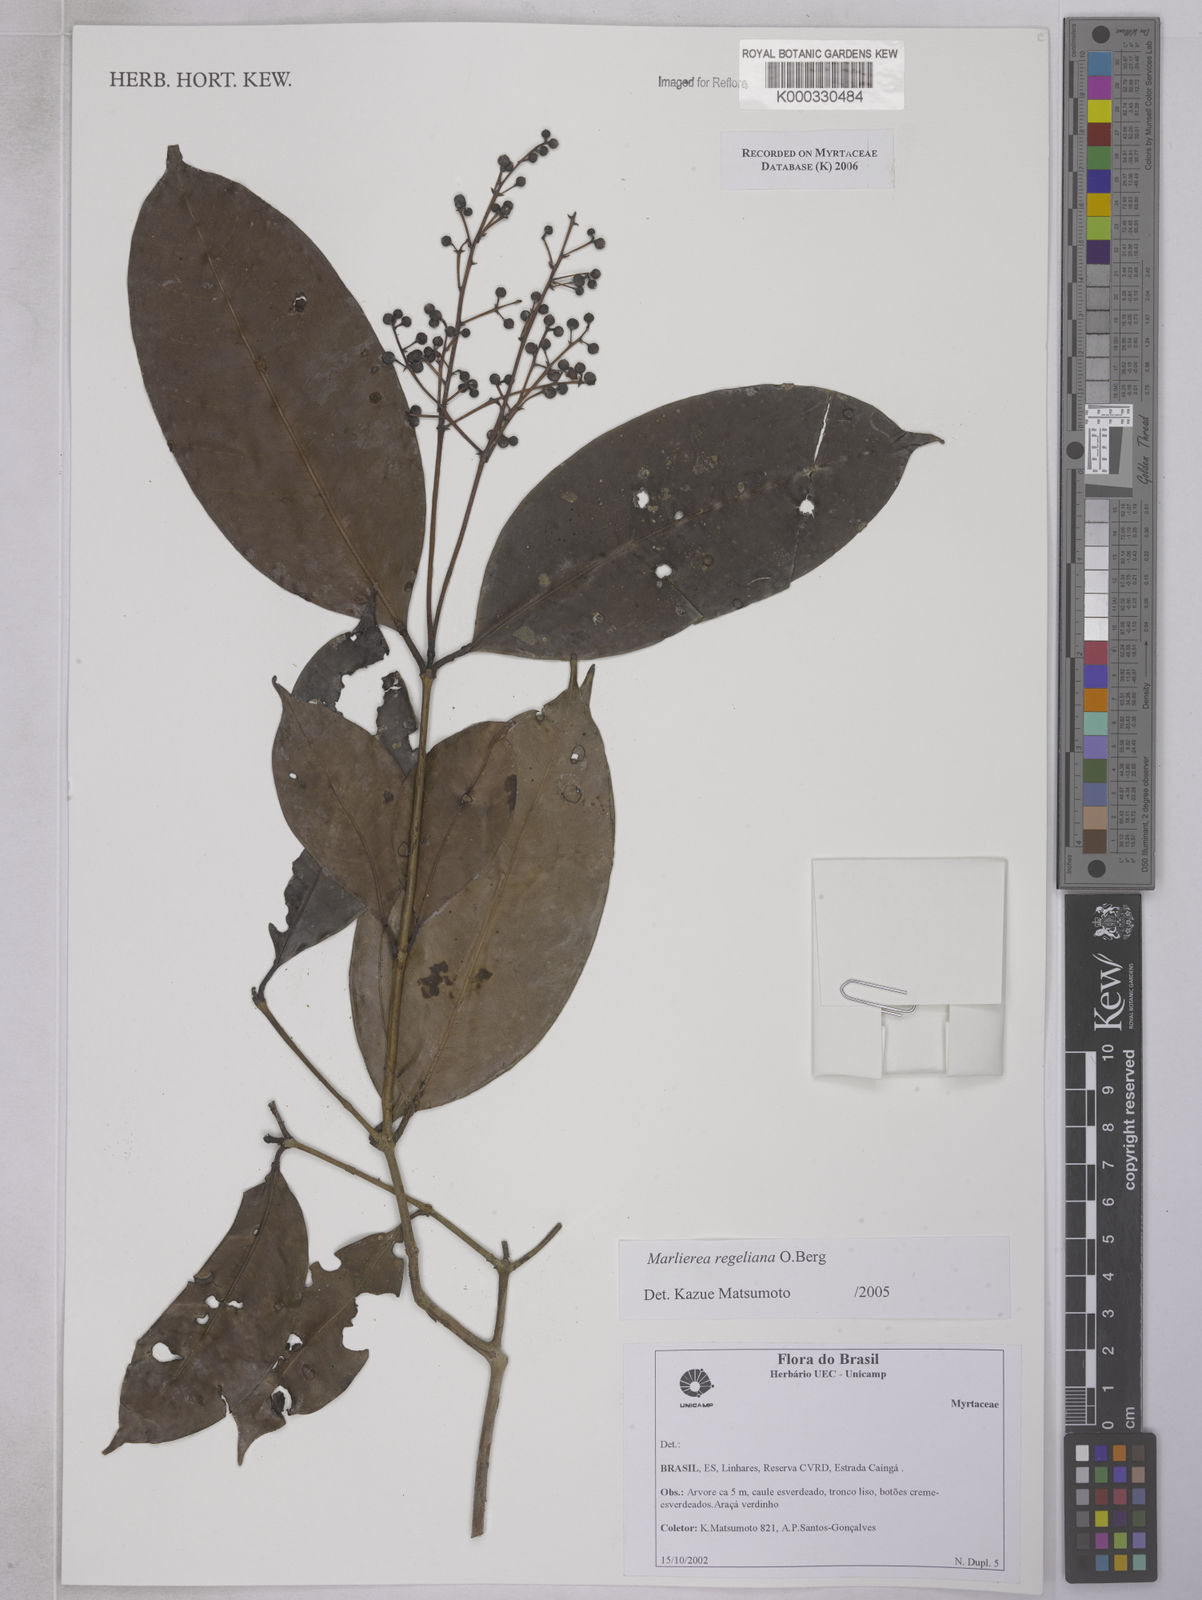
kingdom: Plantae
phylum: Tracheophyta
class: Magnoliopsida
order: Myrtales
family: Myrtaceae
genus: Myrcia
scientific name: Myrcia neoregeliana
